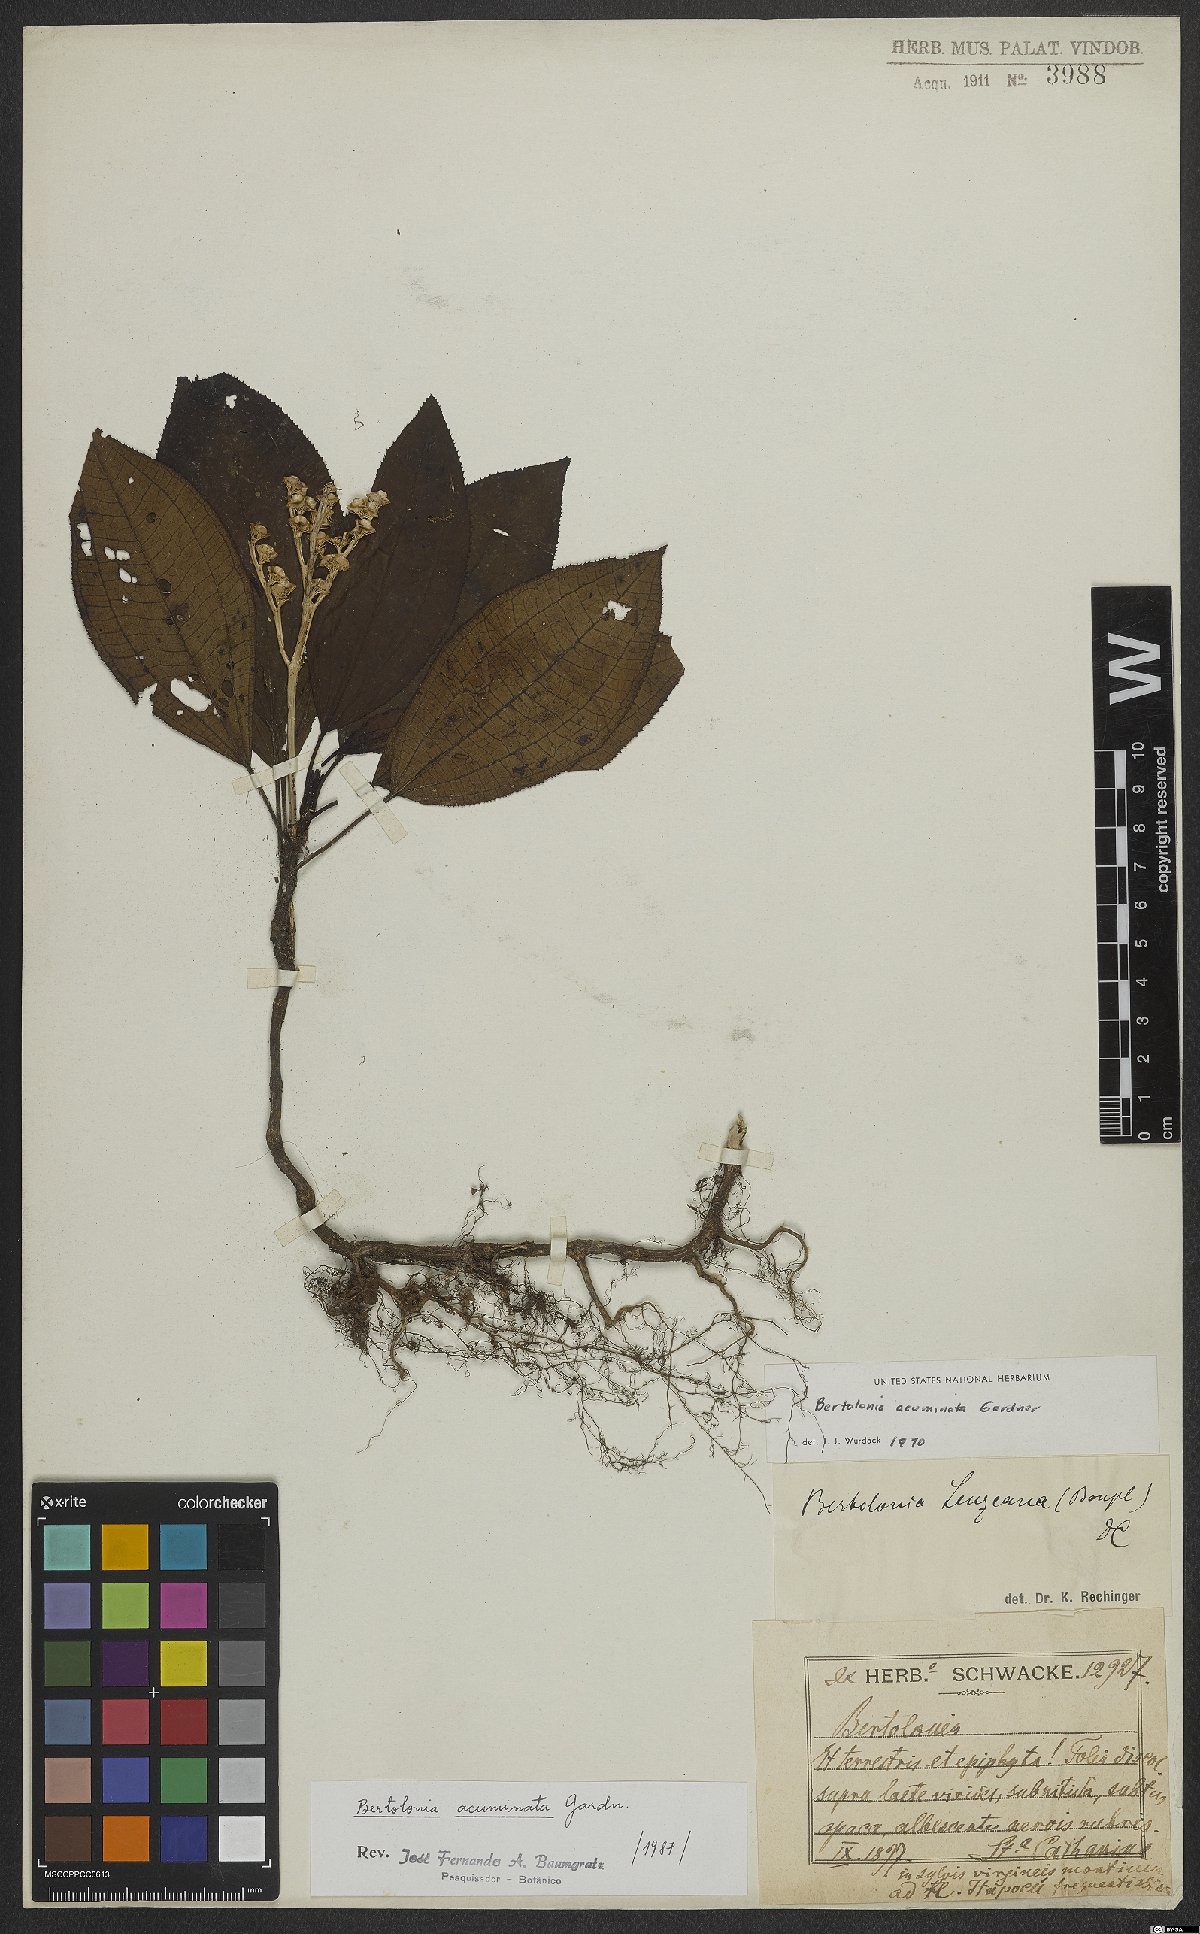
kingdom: Plantae
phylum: Tracheophyta
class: Magnoliopsida
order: Myrtales
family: Melastomataceae
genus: Bertolonia
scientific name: Bertolonia acuminata
